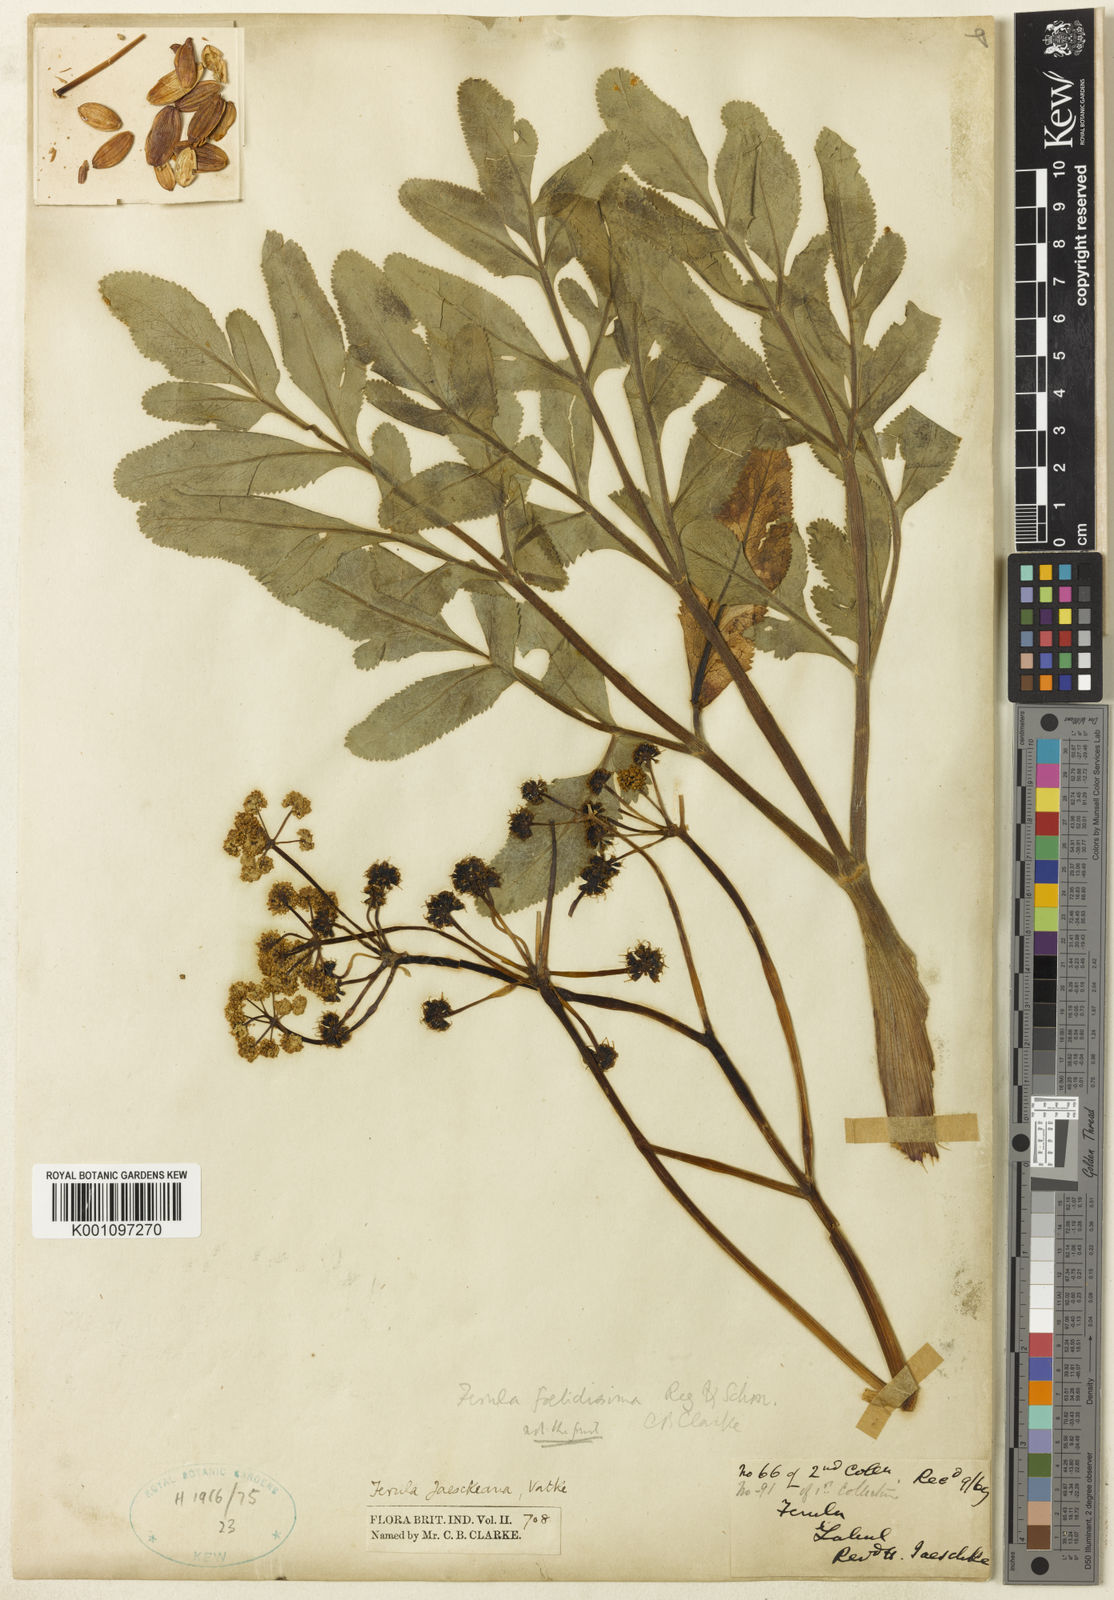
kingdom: Plantae
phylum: Tracheophyta
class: Magnoliopsida
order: Apiales
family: Apiaceae
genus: Ferula
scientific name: Ferula jaeschkeana
